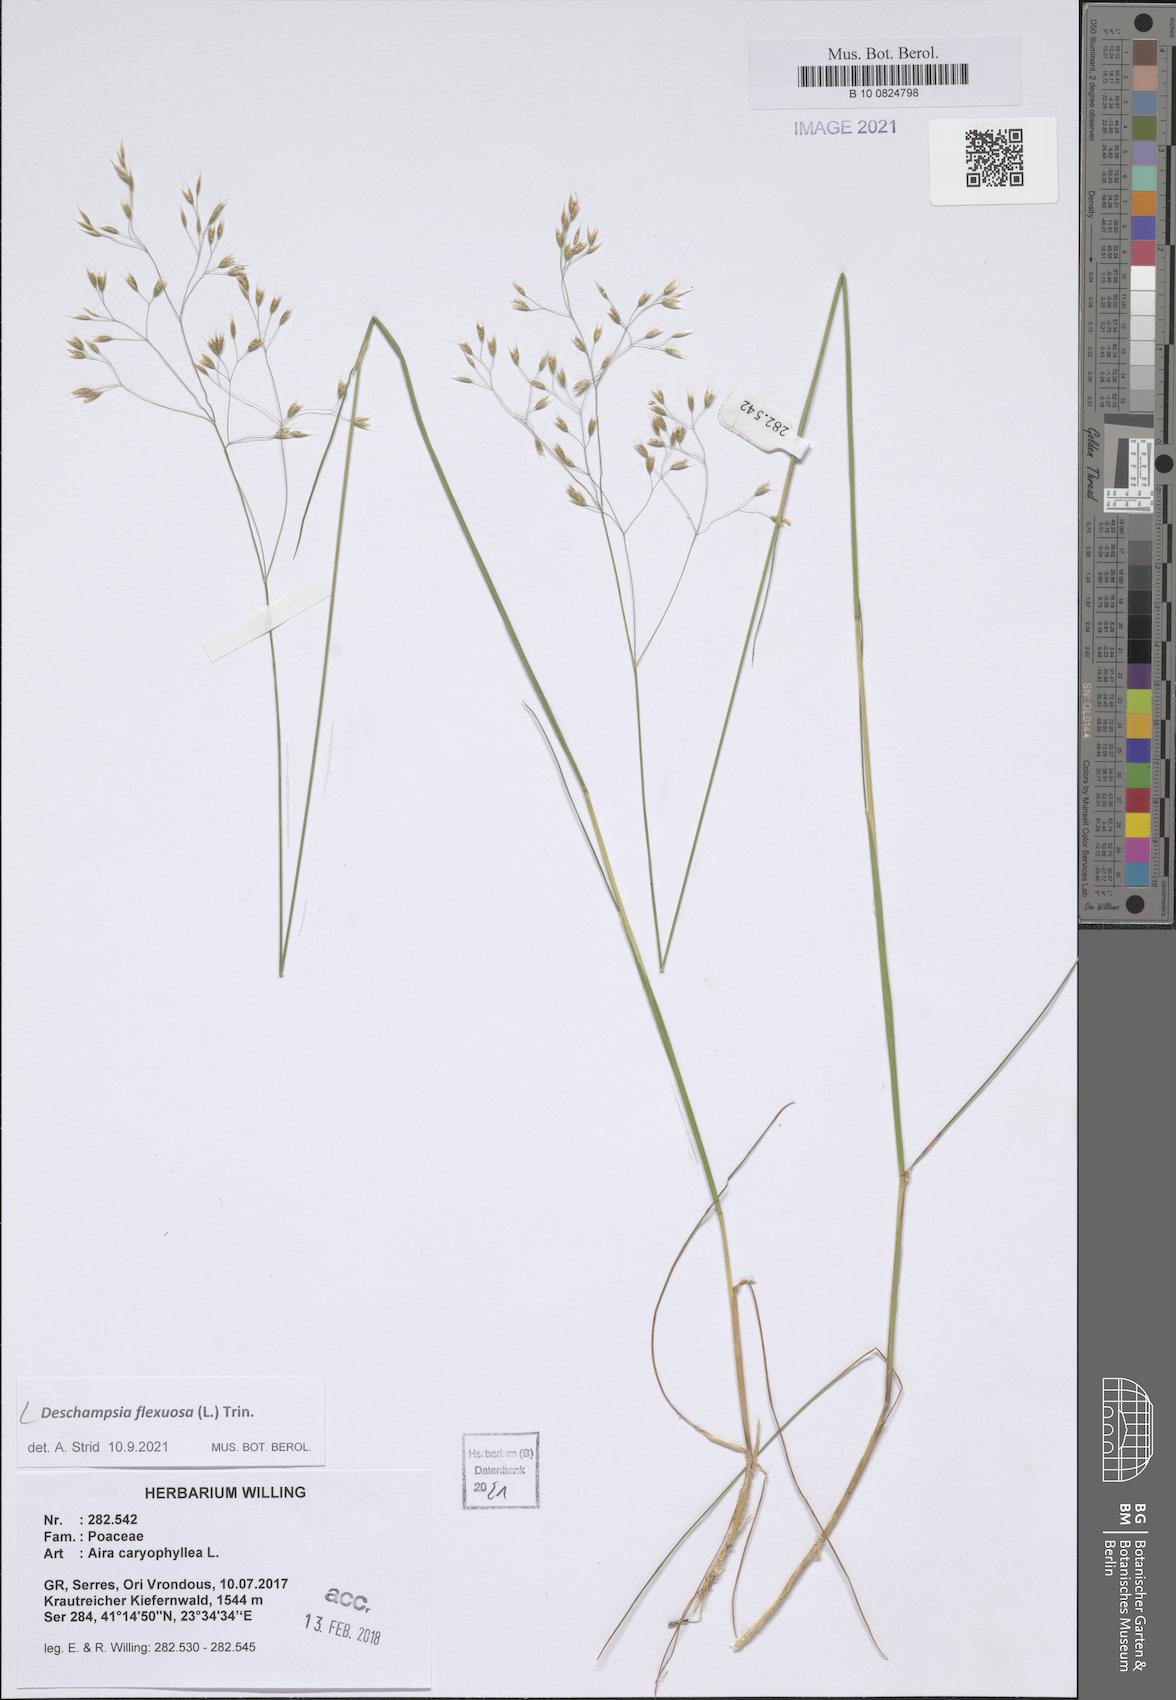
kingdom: Plantae
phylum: Tracheophyta
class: Liliopsida
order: Poales
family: Poaceae
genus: Avenella
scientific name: Avenella flexuosa
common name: Wavy hairgrass
